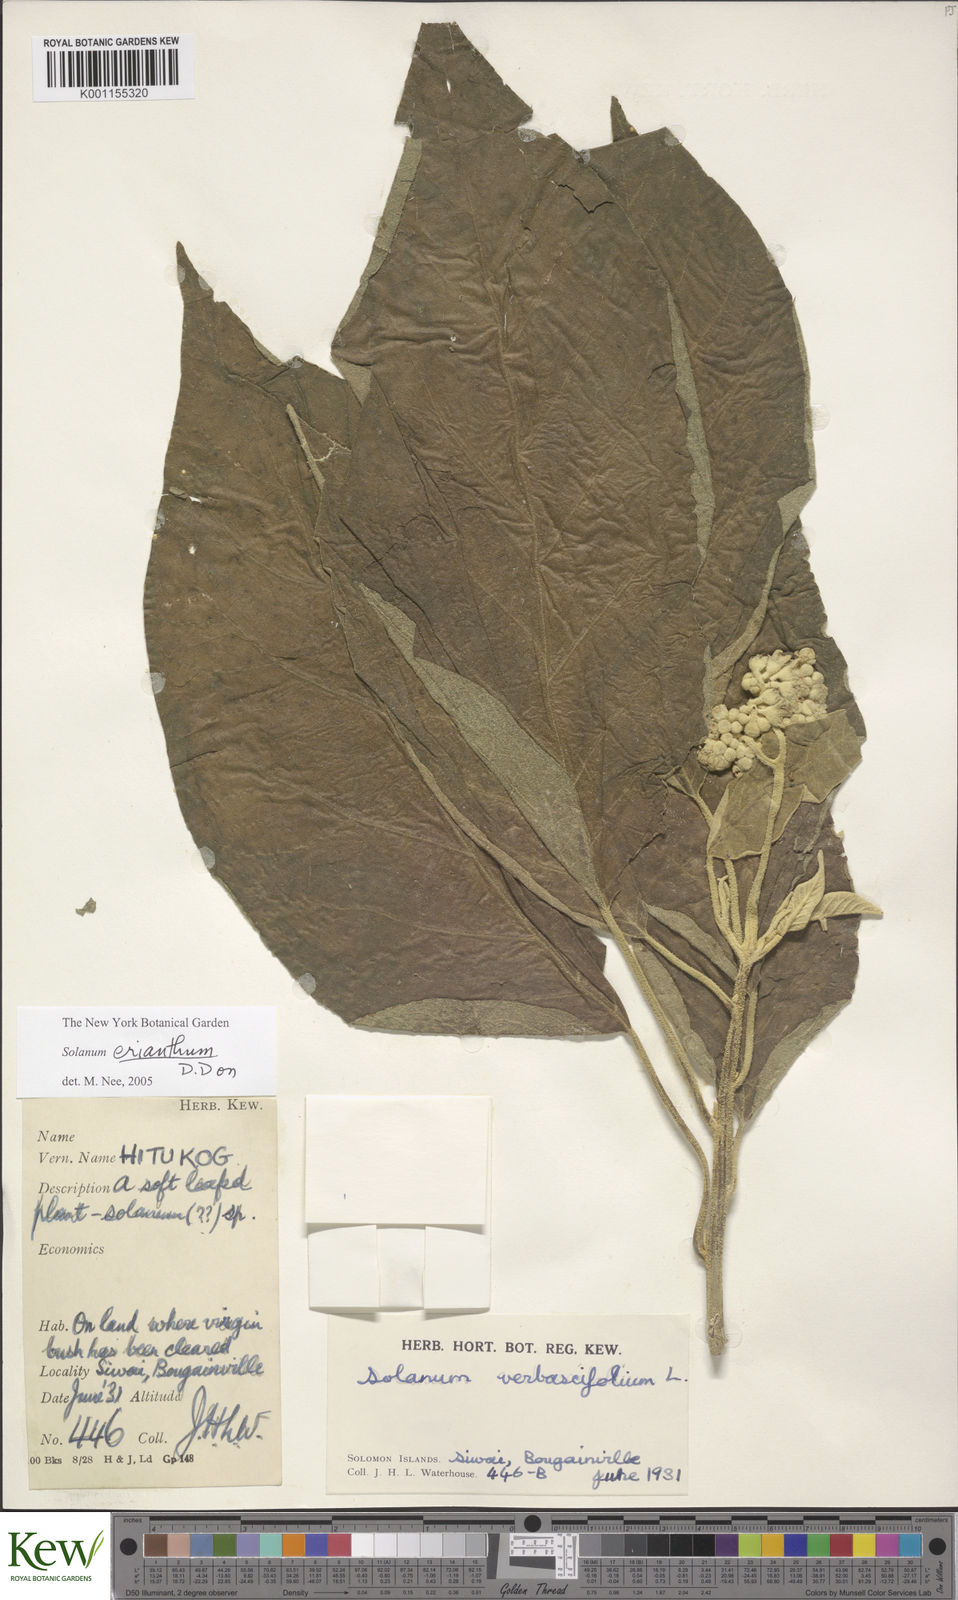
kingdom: Plantae
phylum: Tracheophyta
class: Magnoliopsida
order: Solanales
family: Solanaceae
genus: Solanum
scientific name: Solanum erianthum
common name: Tobacco-tree
